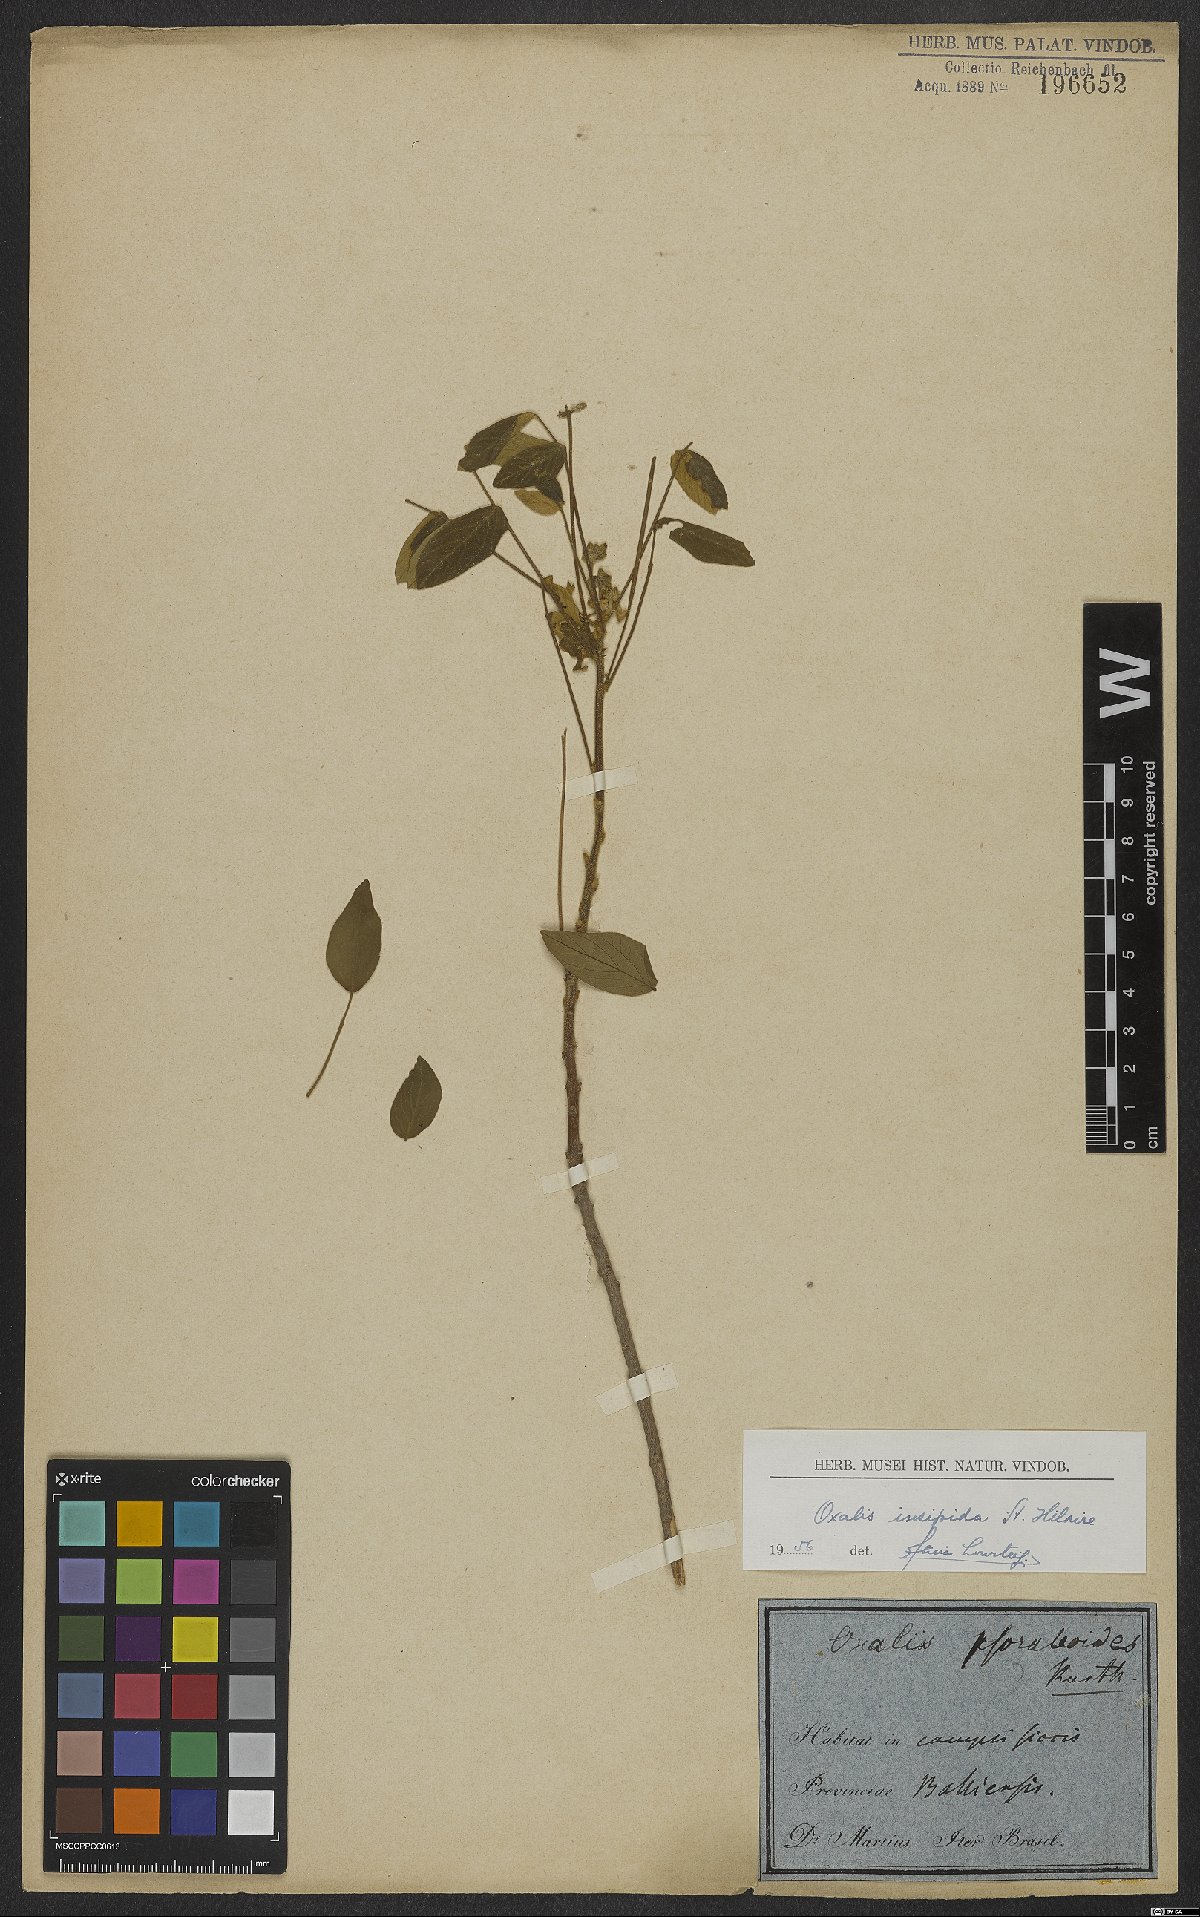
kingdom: Plantae
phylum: Tracheophyta
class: Magnoliopsida
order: Oxalidales
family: Oxalidaceae
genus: Oxalis
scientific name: Oxalis psoraleoides
